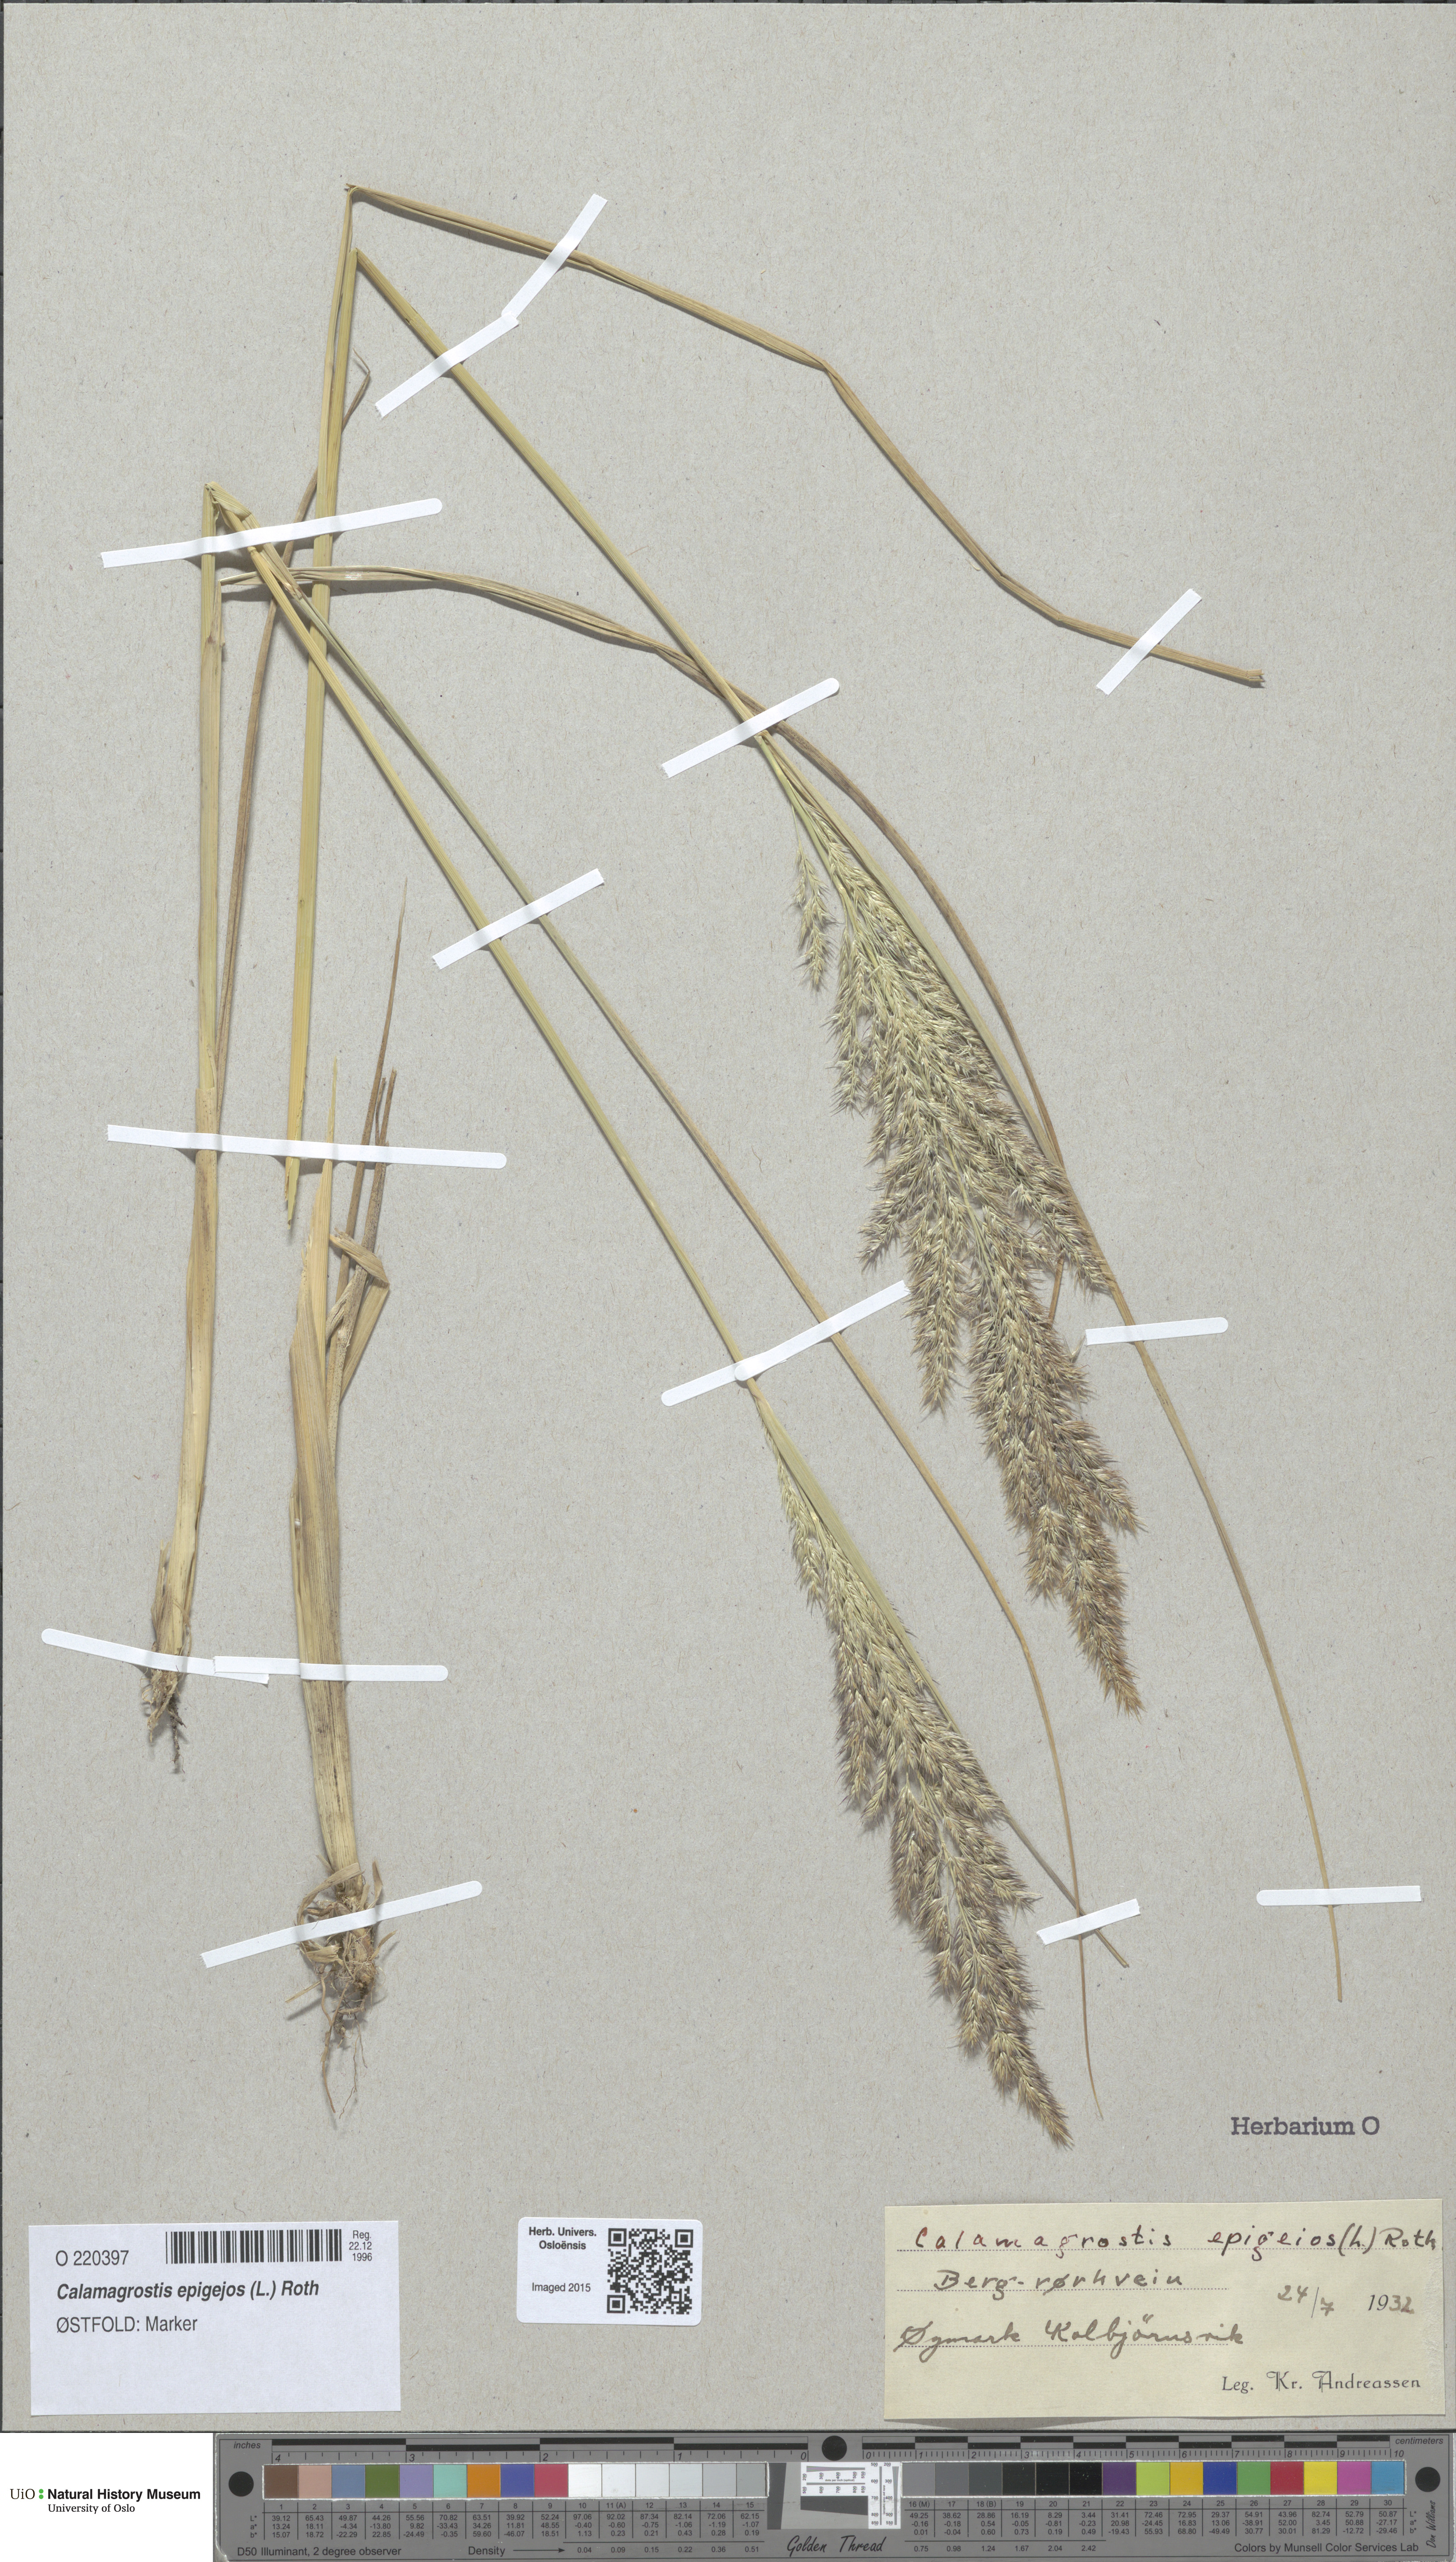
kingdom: Plantae
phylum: Tracheophyta
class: Liliopsida
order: Poales
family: Poaceae
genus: Calamagrostis
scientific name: Calamagrostis epigejos
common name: Wood small-reed
